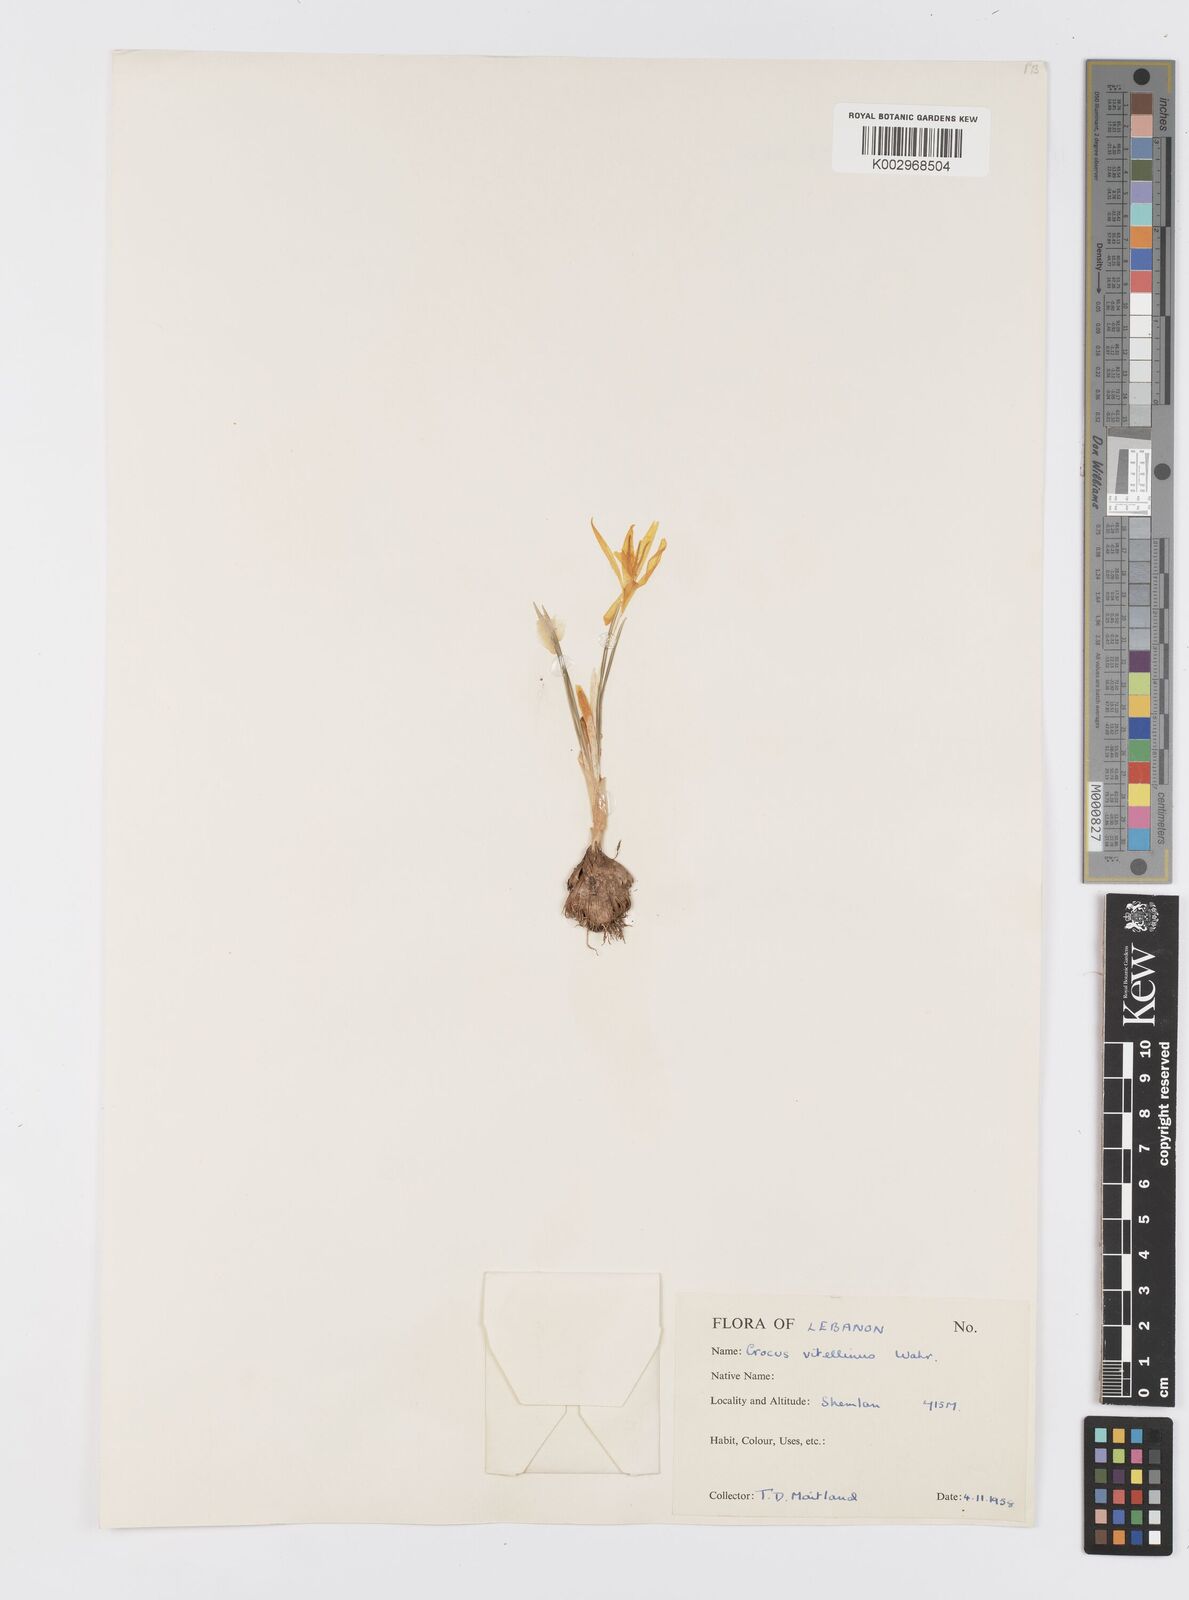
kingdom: Plantae
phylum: Tracheophyta
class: Liliopsida
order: Asparagales
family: Iridaceae
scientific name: Iridaceae
